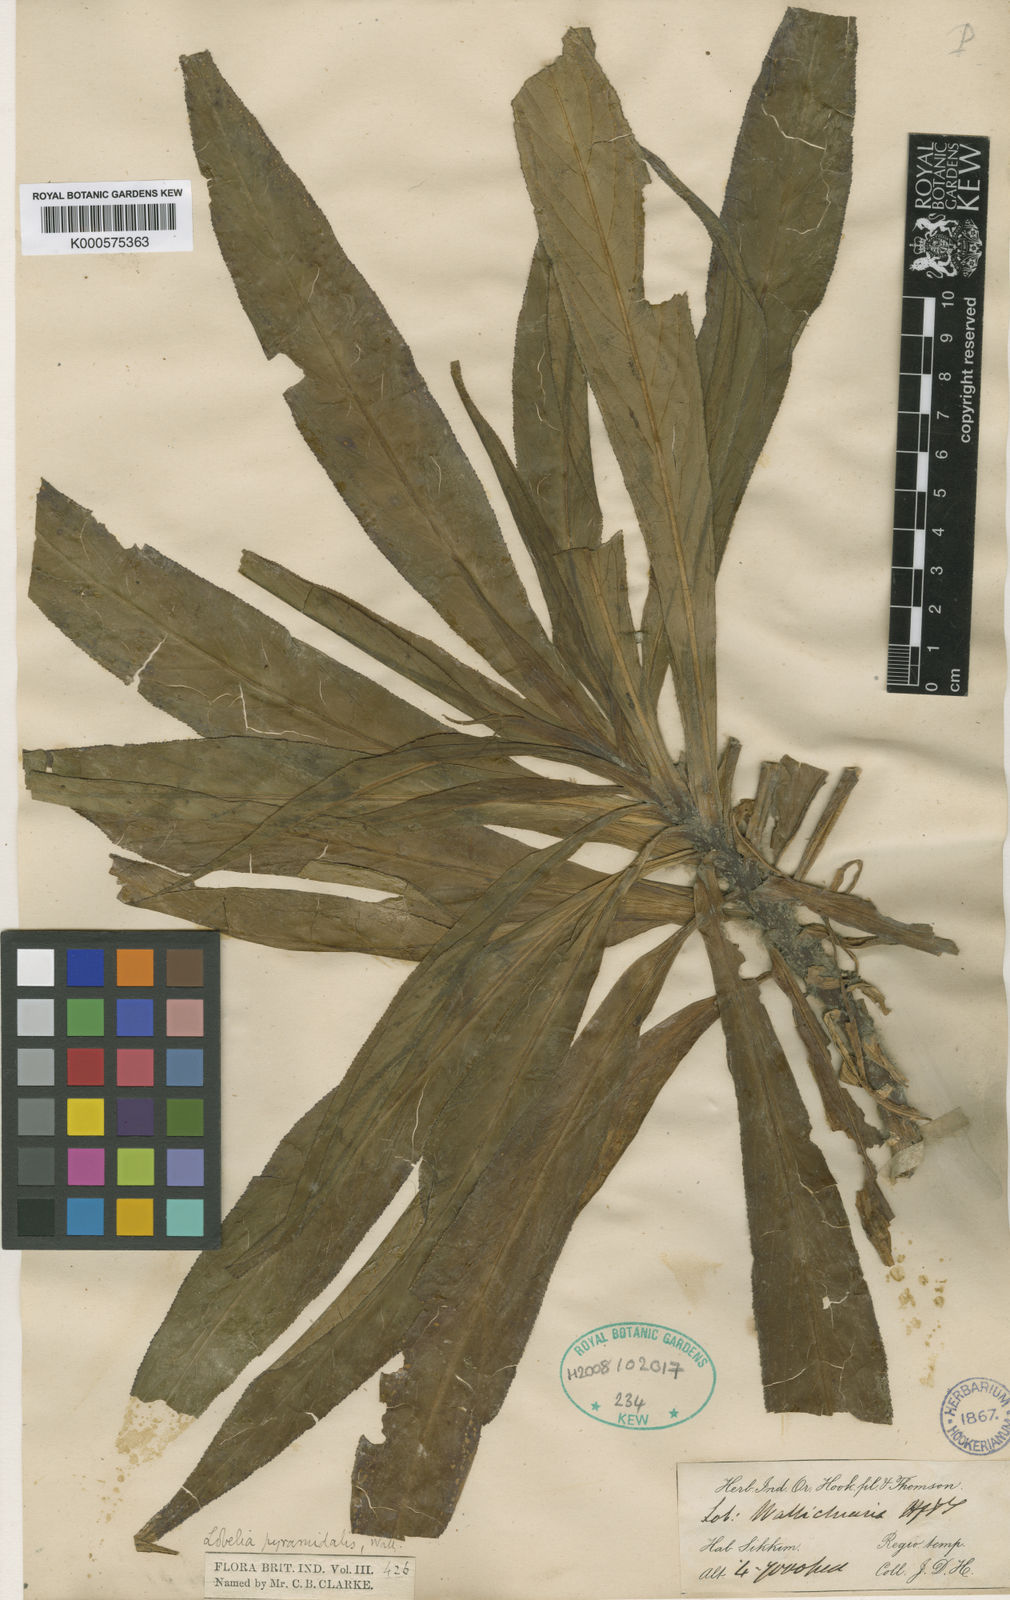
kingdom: Plantae
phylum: Tracheophyta
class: Magnoliopsida
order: Asterales
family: Campanulaceae
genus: Lobelia
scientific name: Lobelia
